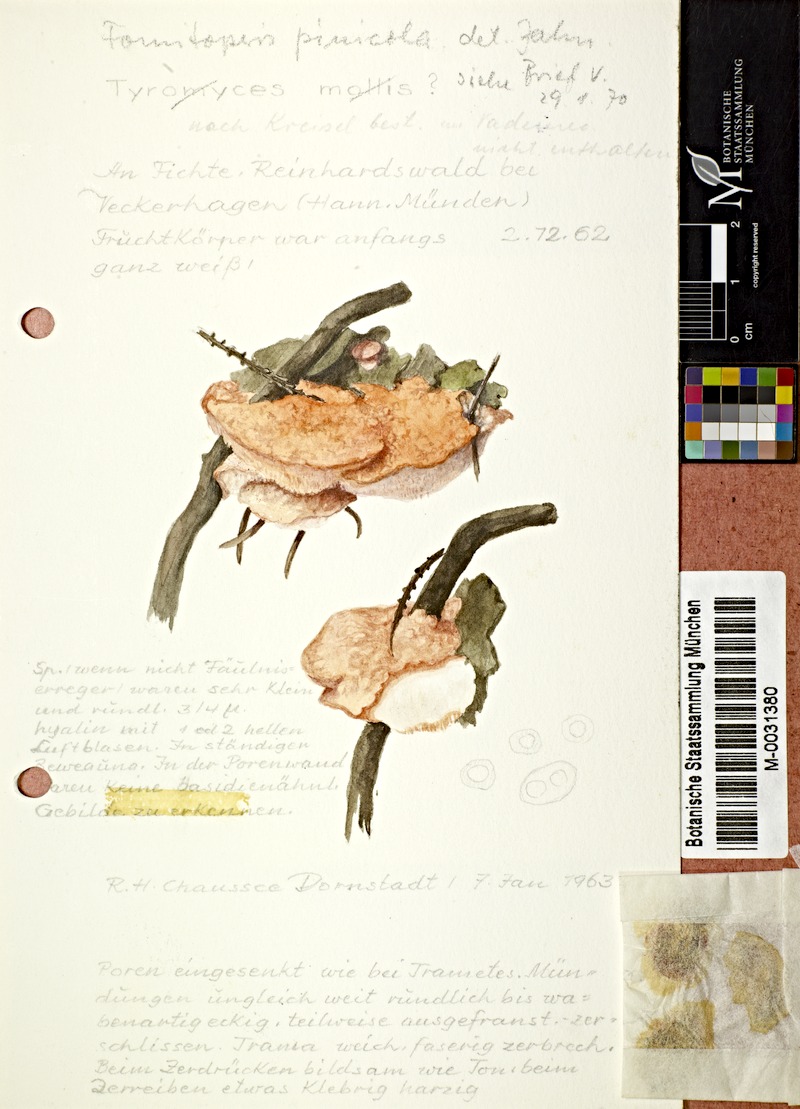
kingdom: Fungi
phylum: Basidiomycota
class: Agaricomycetes
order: Polyporales
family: Fomitopsidaceae
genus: Fomitopsis
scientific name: Fomitopsis pinicola
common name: Red-belted bracket
